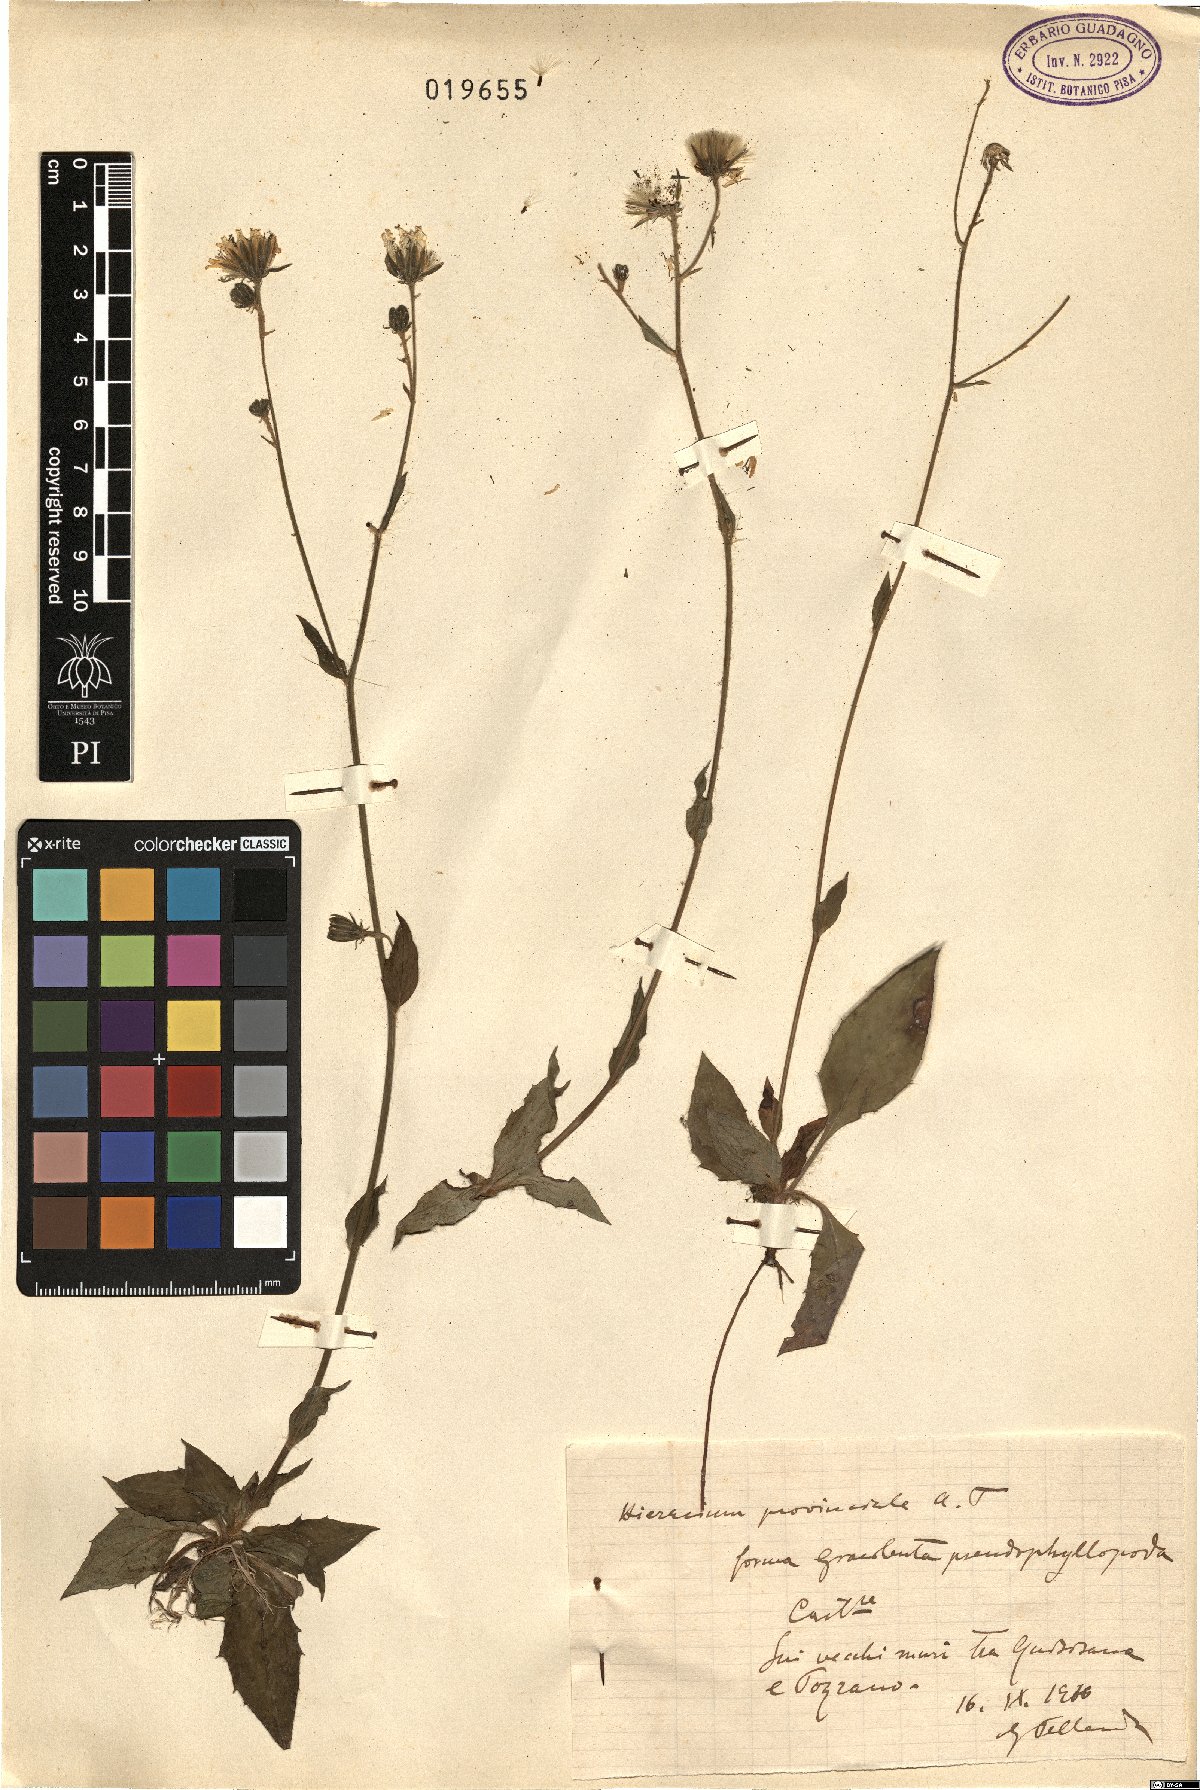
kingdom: Plantae
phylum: Tracheophyta
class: Magnoliopsida
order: Asterales
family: Asteraceae
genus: Hieracium
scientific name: Hieracium
